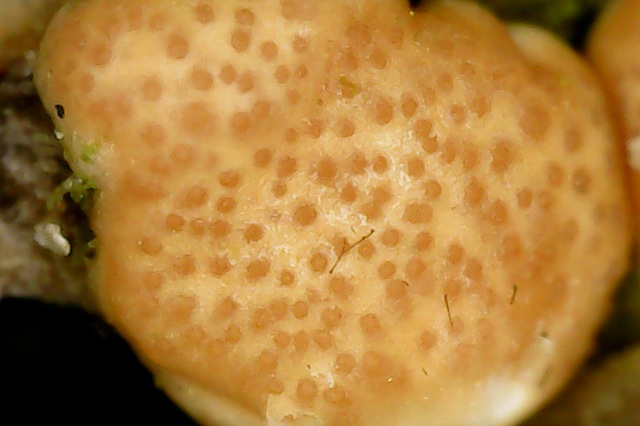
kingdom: Fungi
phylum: Ascomycota
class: Sordariomycetes
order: Hypocreales
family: Hypocreaceae
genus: Trichoderma
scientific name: Trichoderma europaeum
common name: rosabrun kødkerne
